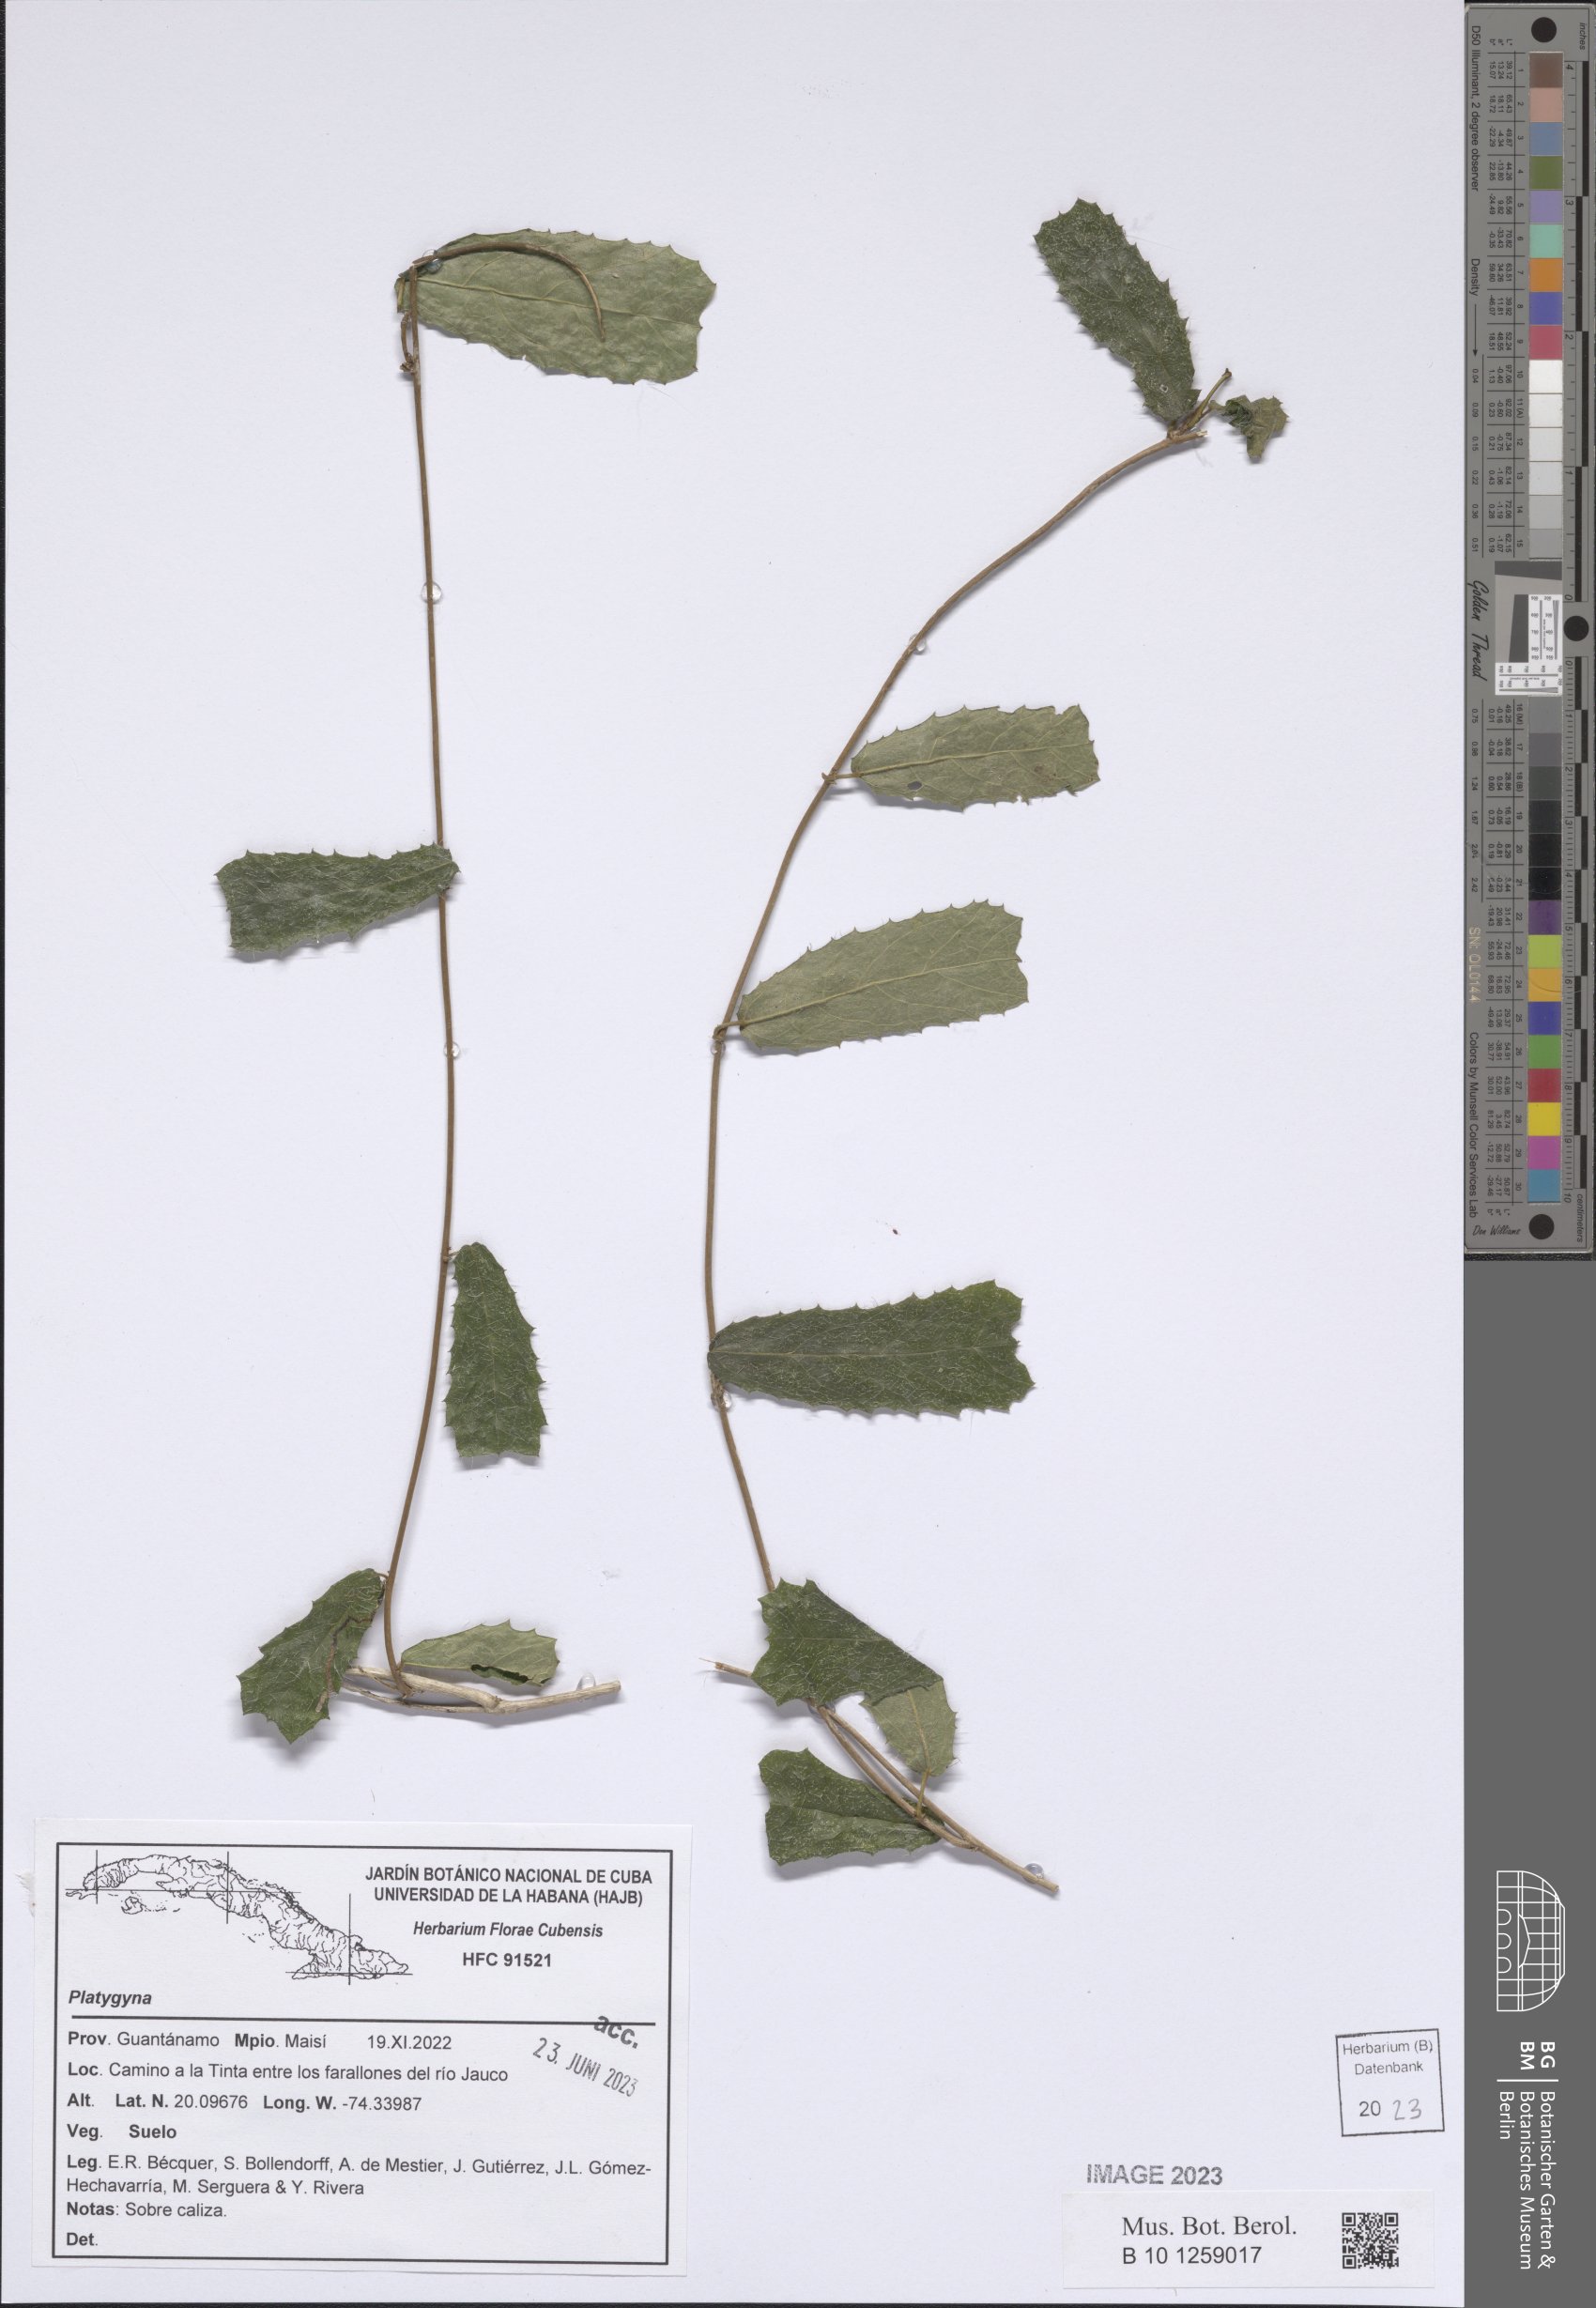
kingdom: Plantae
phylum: Tracheophyta
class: Magnoliopsida
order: Malpighiales
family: Euphorbiaceae
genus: Platygyna
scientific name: Platygyna
